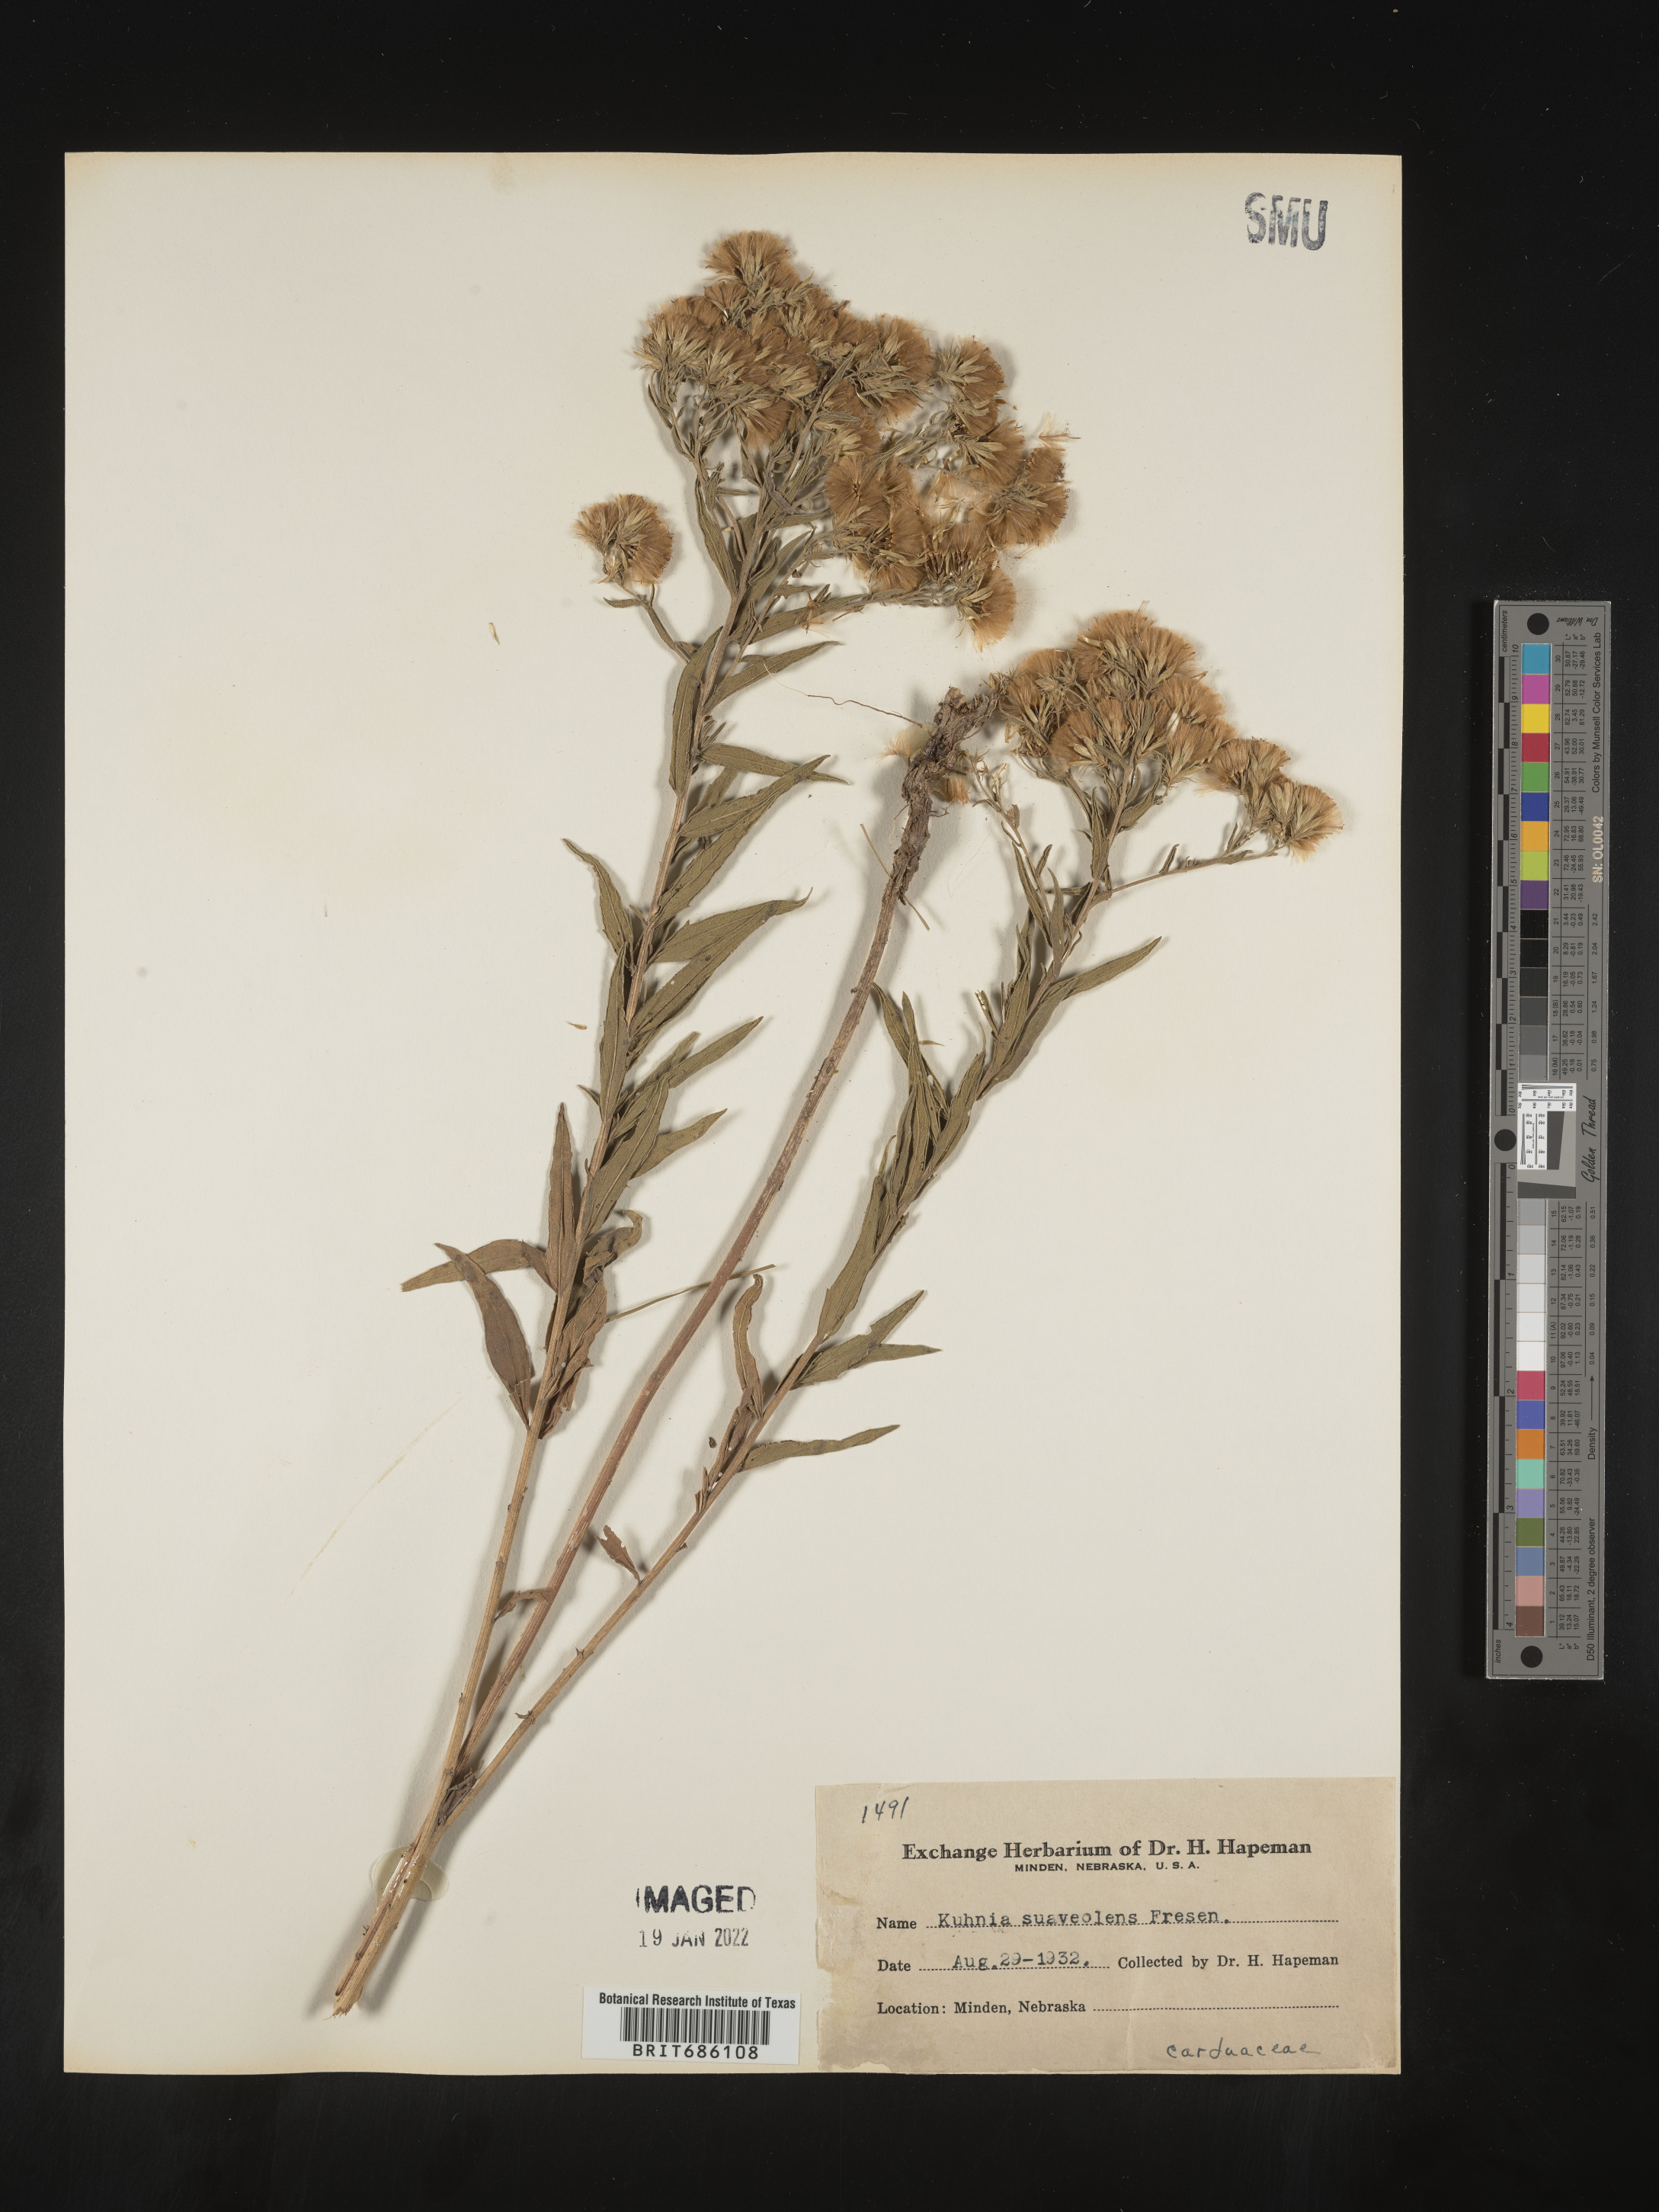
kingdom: Plantae
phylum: Tracheophyta
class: Magnoliopsida
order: Asterales
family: Asteraceae
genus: Brickellia
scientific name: Brickellia suaveolens
